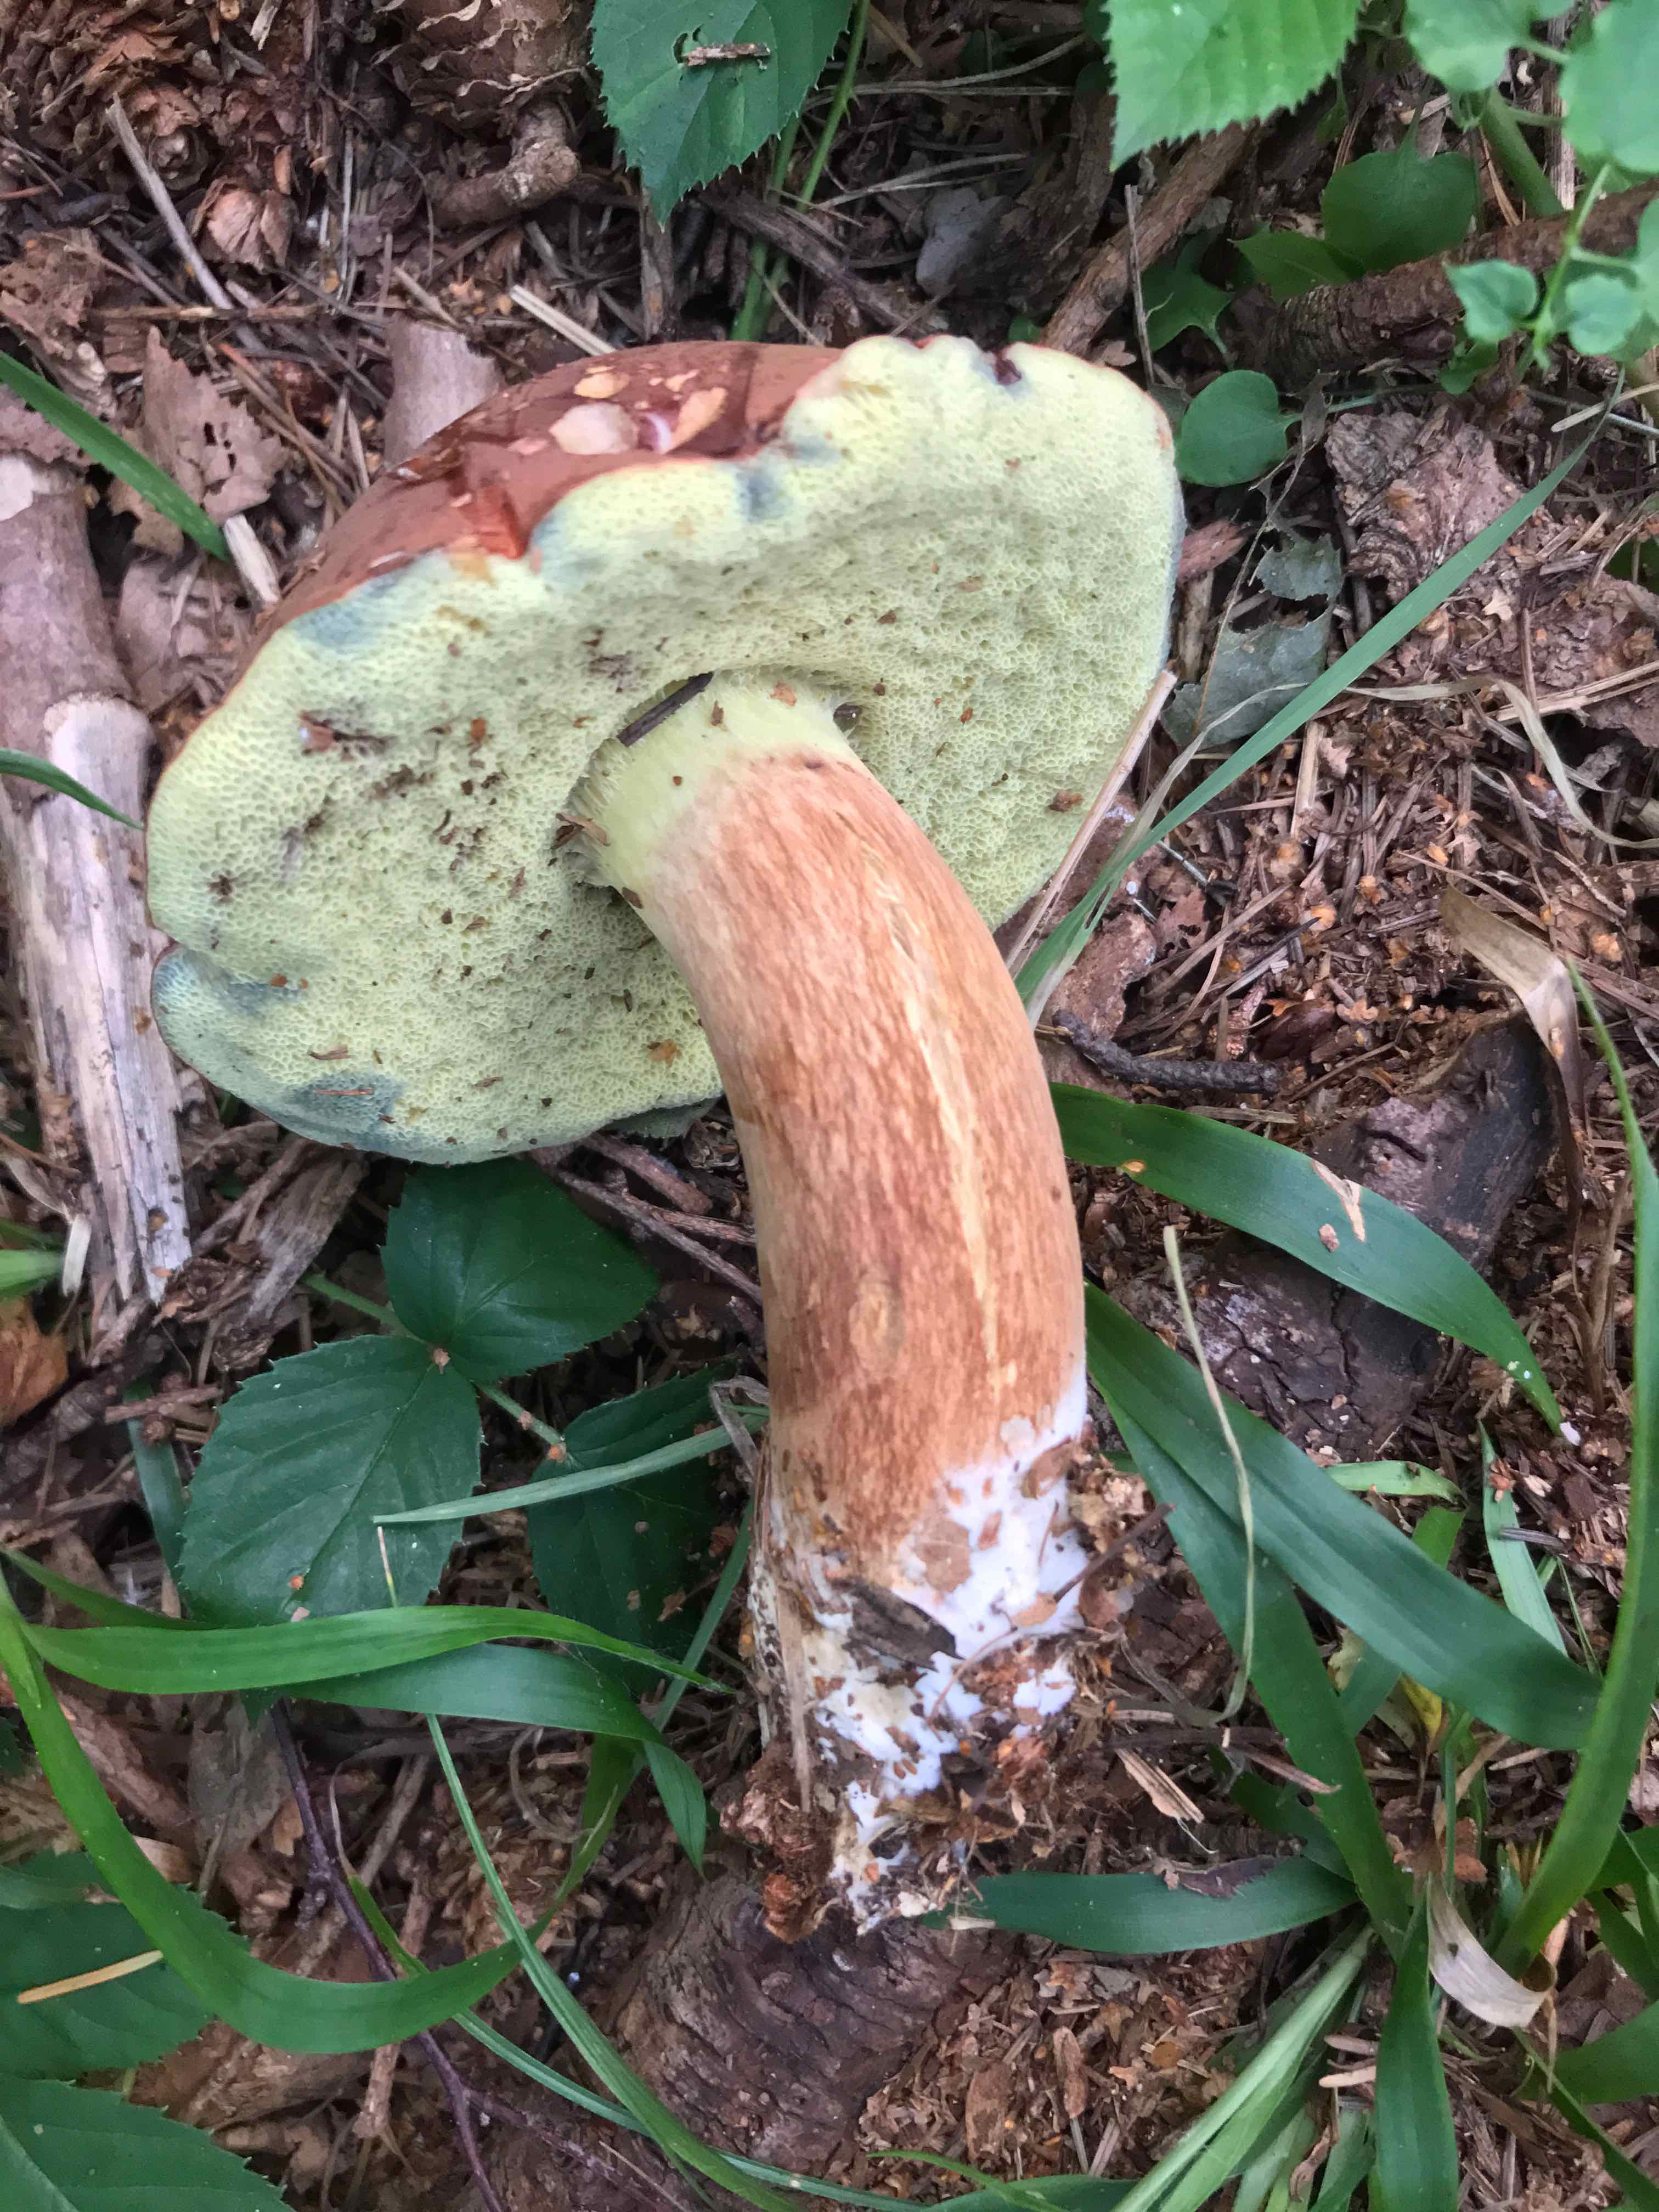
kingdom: Fungi
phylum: Basidiomycota
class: Agaricomycetes
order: Boletales
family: Boletaceae
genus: Imleria
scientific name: Imleria badia
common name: brunstokket rørhat
